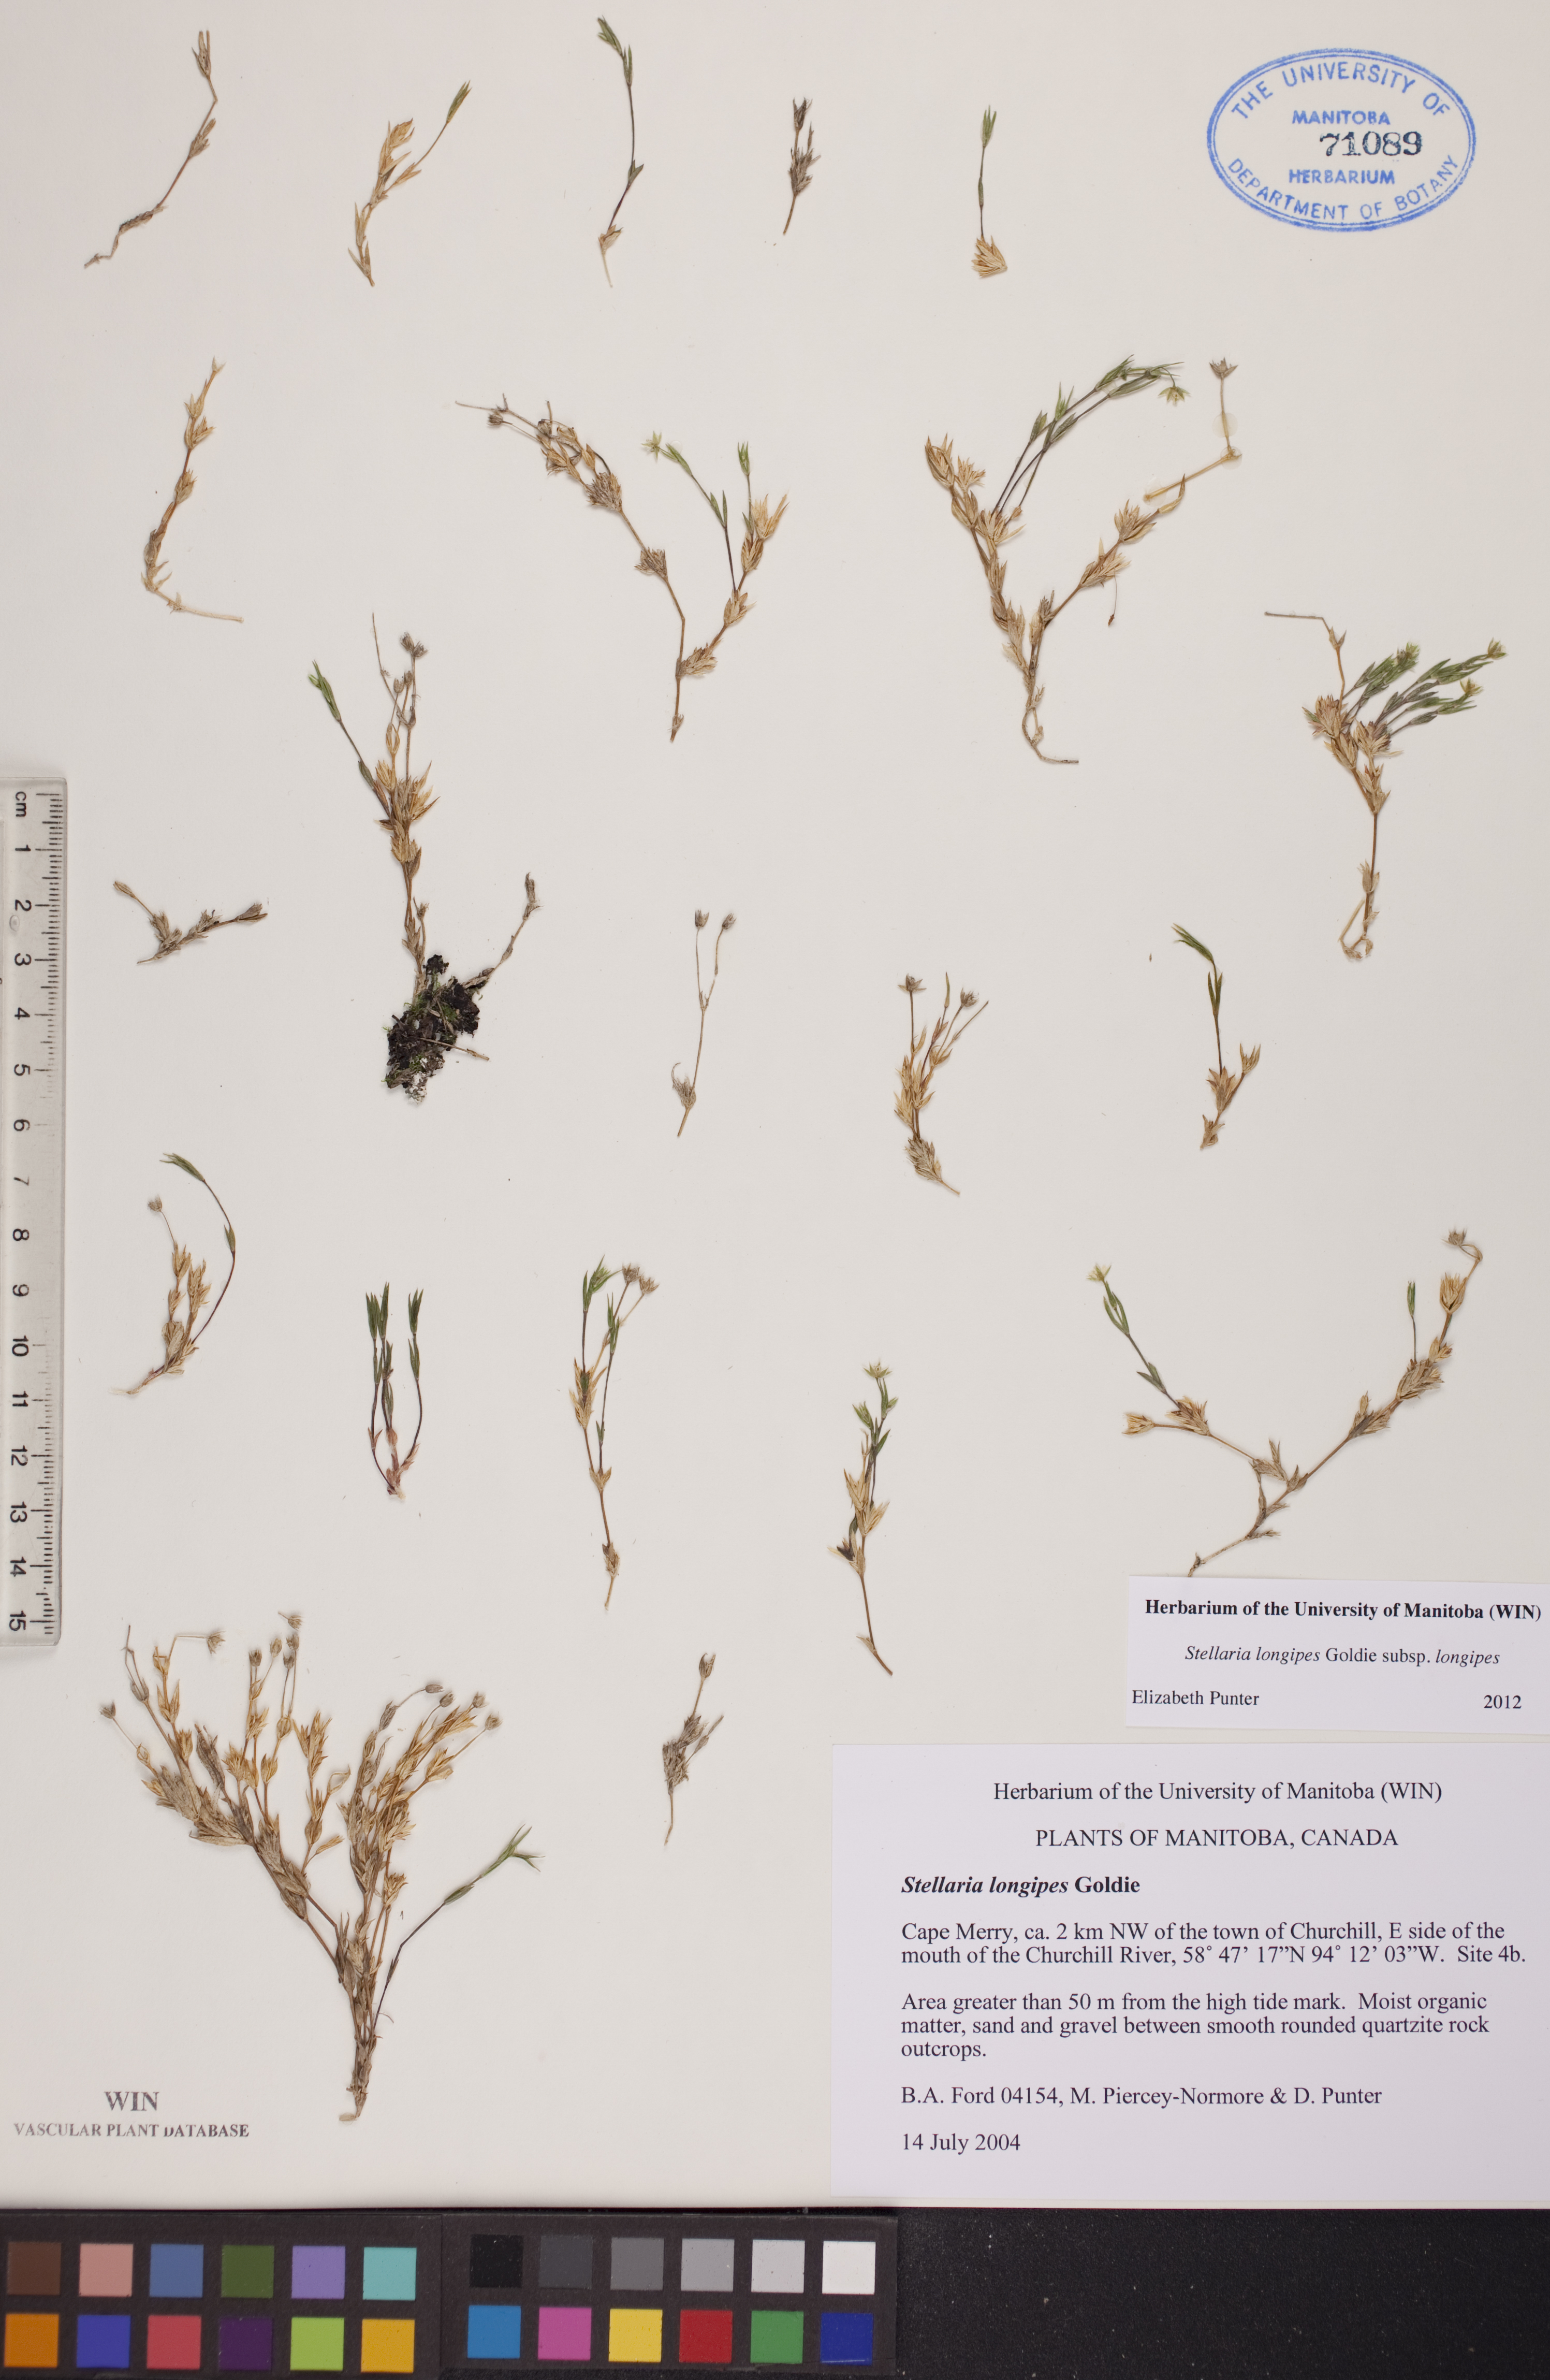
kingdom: Plantae
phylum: Tracheophyta
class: Magnoliopsida
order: Caryophyllales
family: Caryophyllaceae
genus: Stellaria
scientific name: Stellaria longipes
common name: Goldie's starwort
